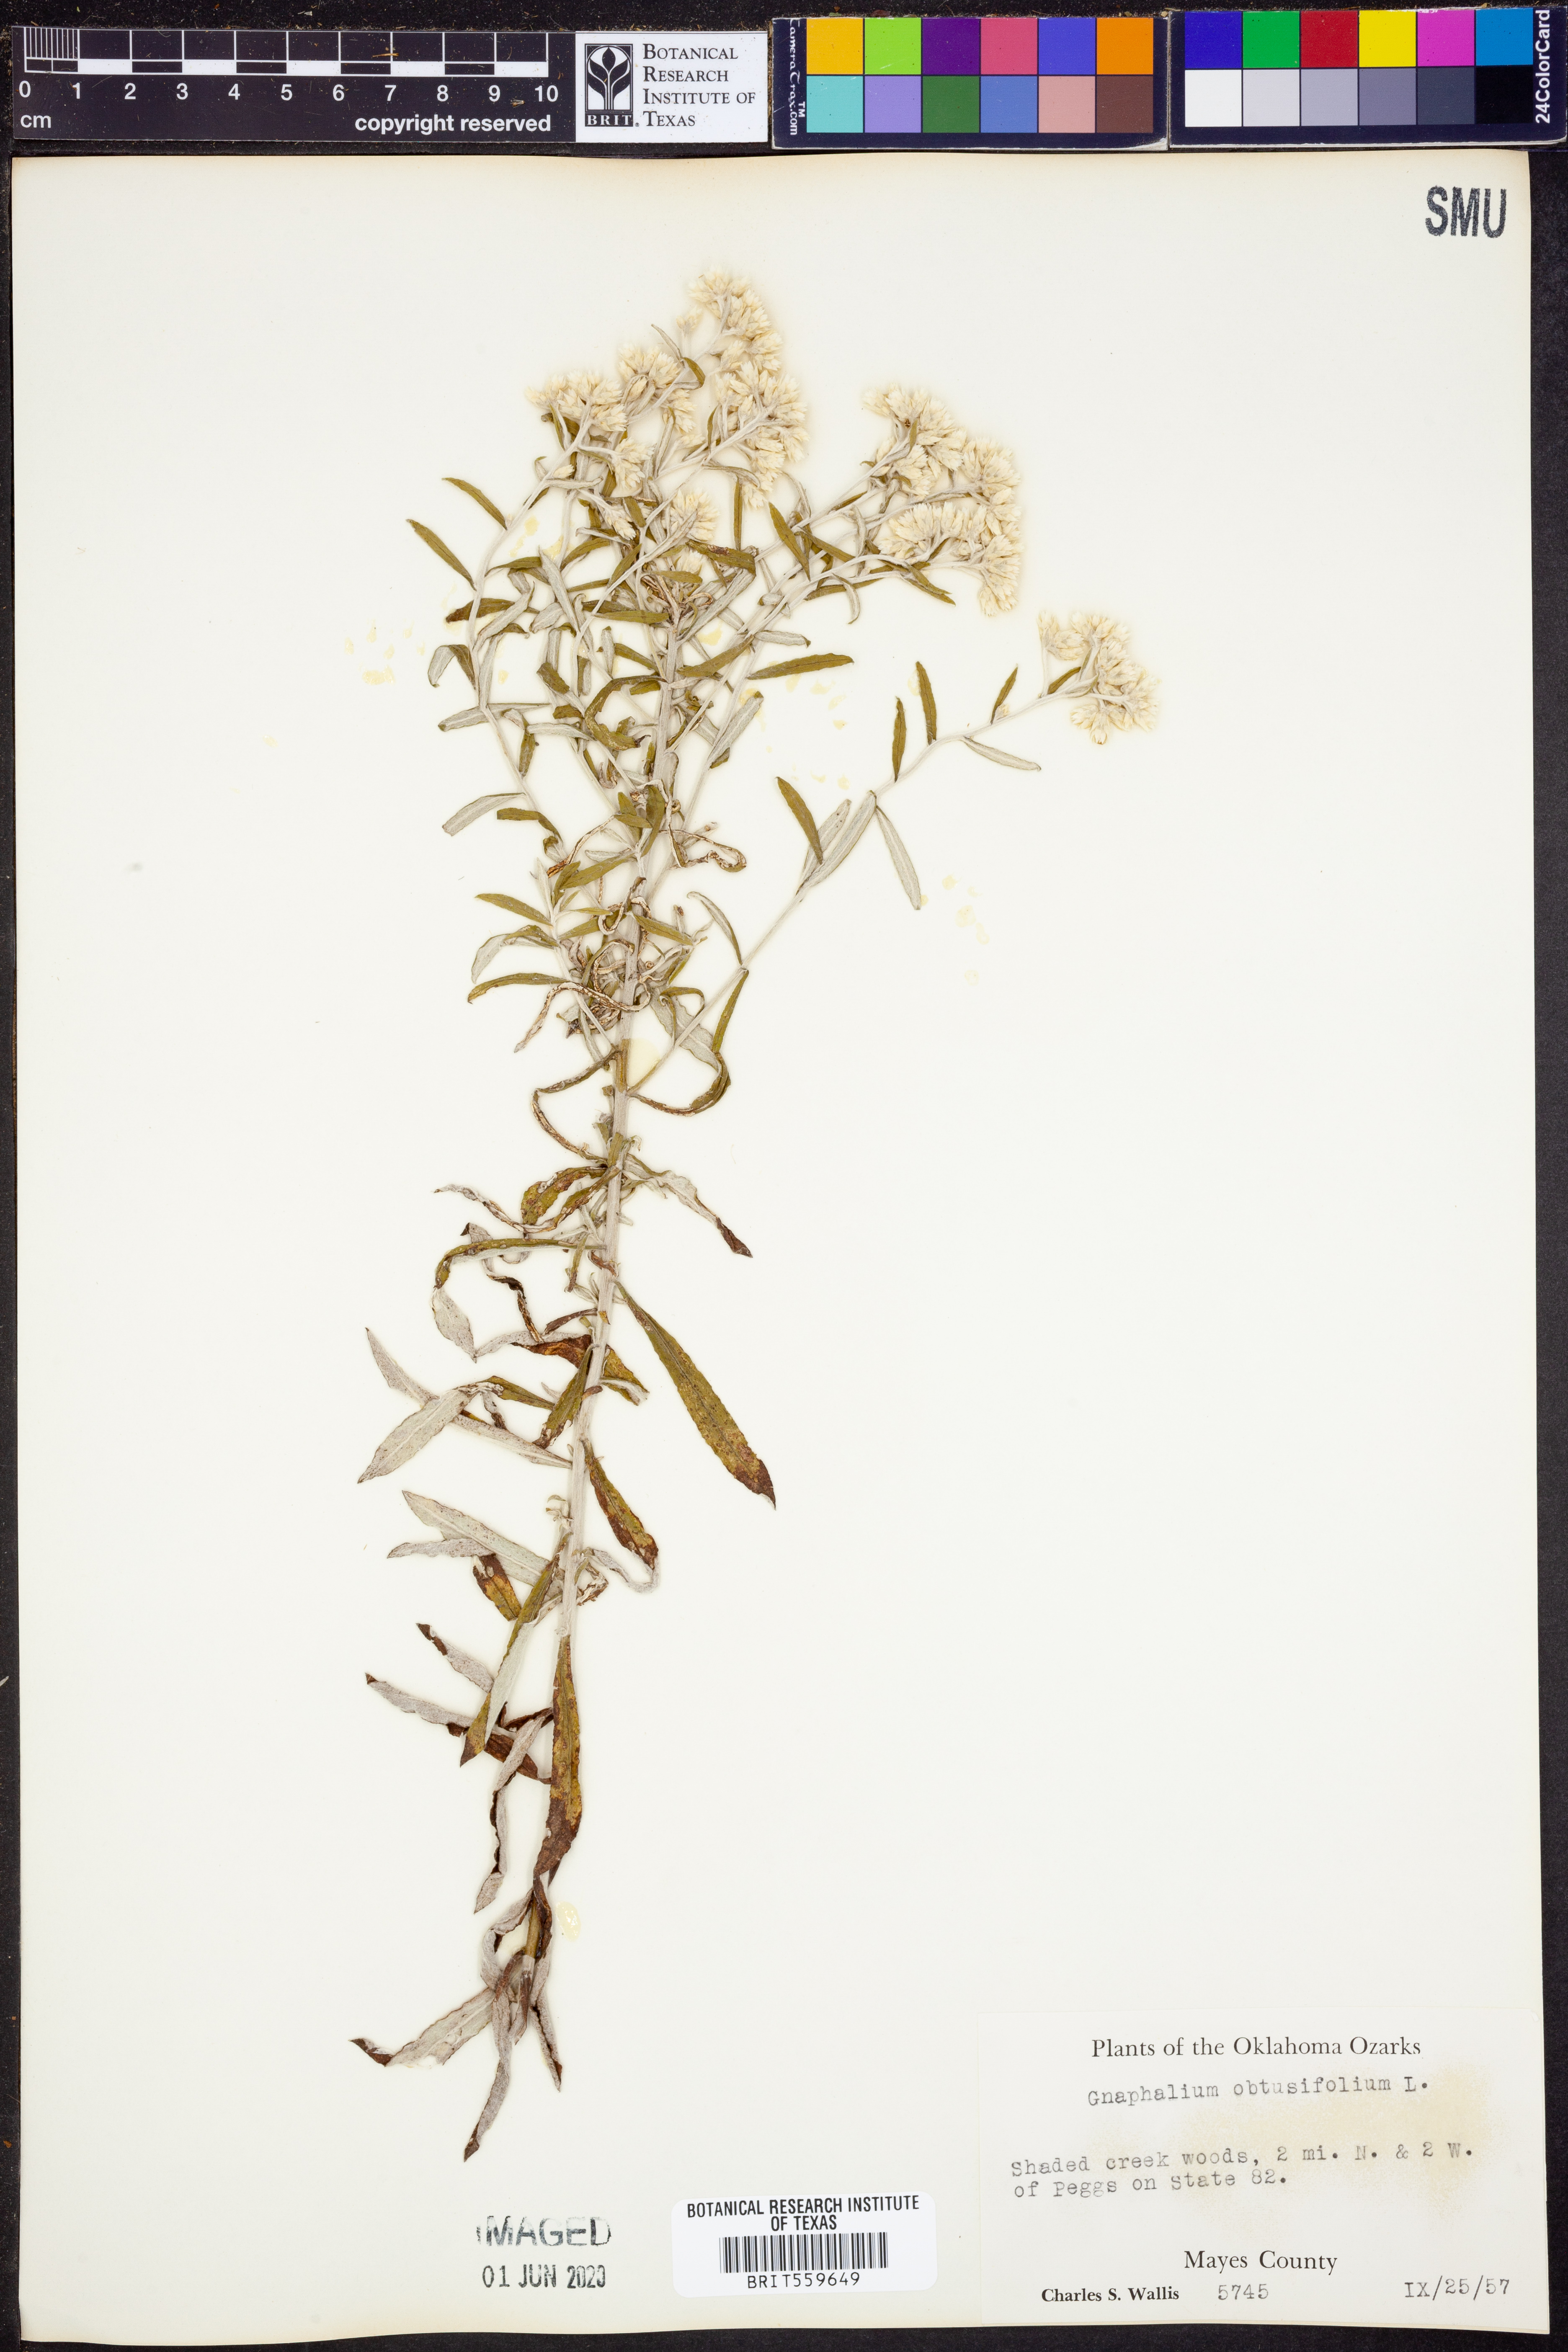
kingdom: Plantae
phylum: Tracheophyta
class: Magnoliopsida
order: Asterales
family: Asteraceae
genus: Pseudognaphalium
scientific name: Pseudognaphalium obtusifolium
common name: Eastern rabbit-tobacco
